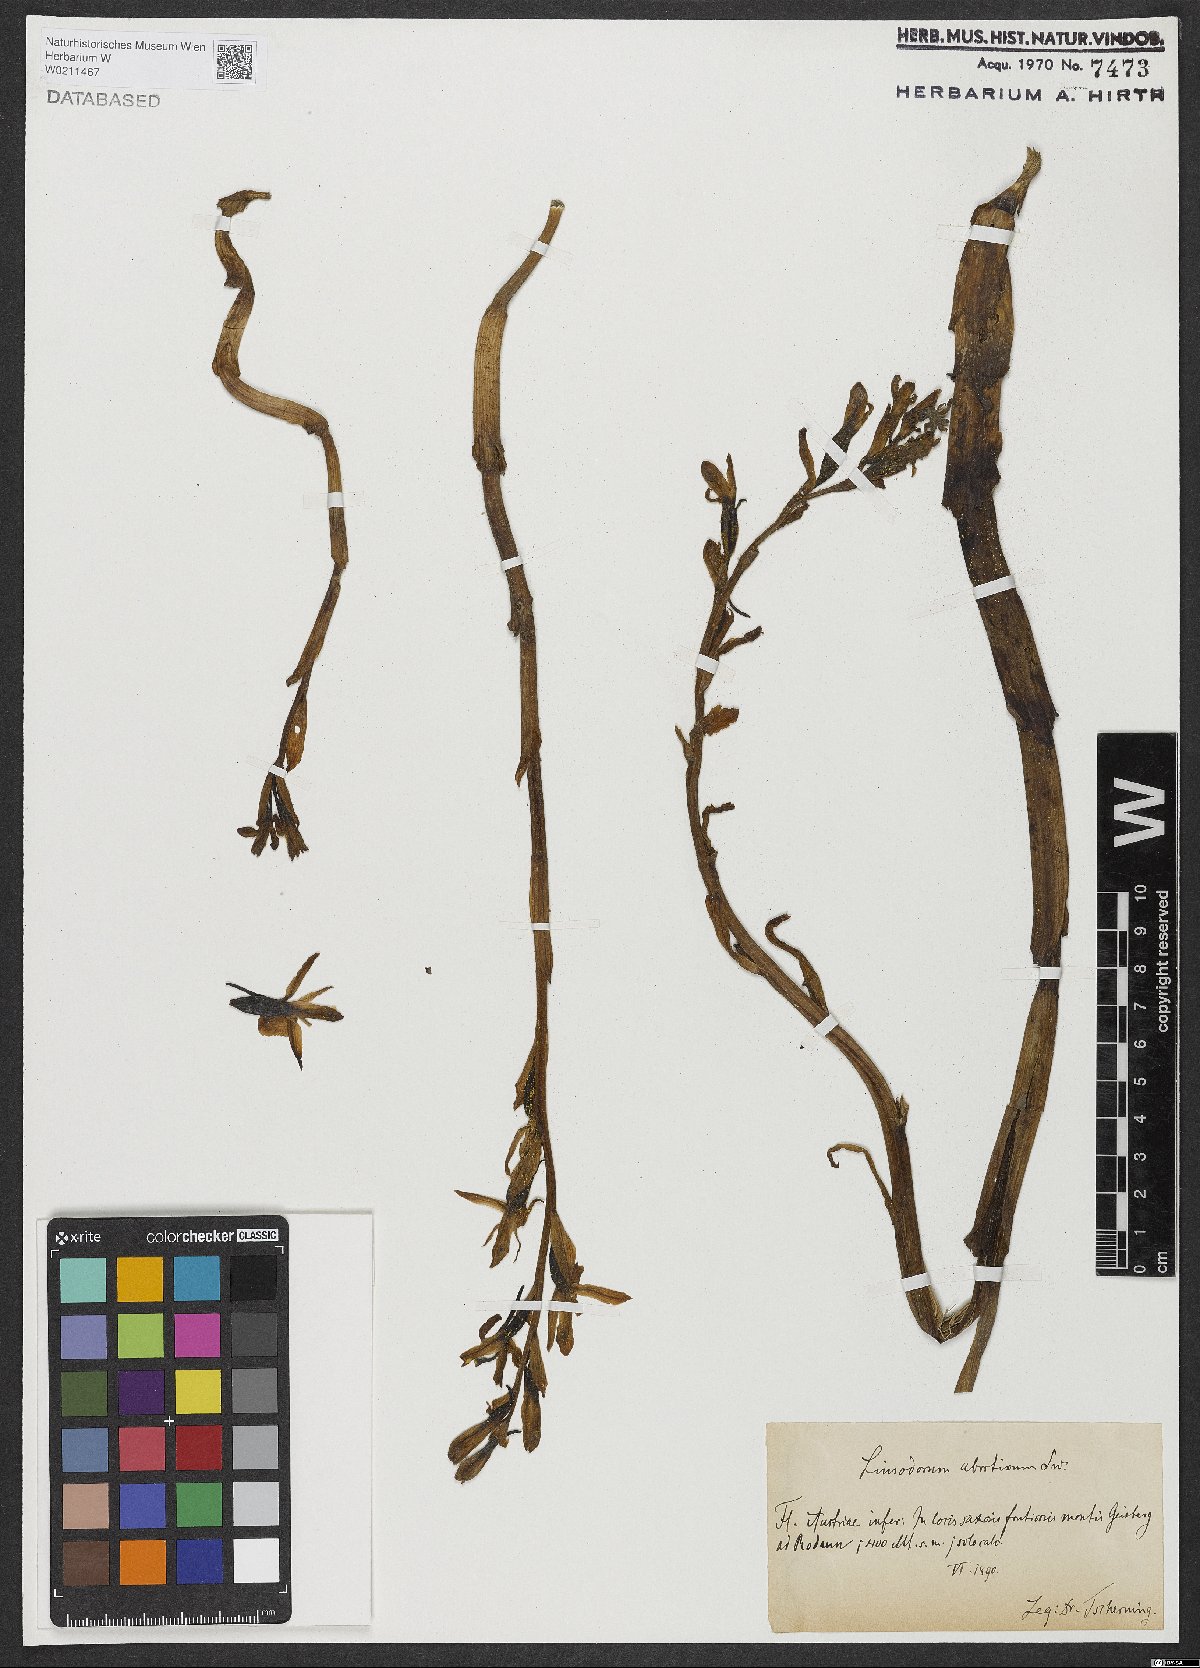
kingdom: Plantae
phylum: Tracheophyta
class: Liliopsida
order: Asparagales
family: Orchidaceae
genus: Limodorum
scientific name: Limodorum abortivum
